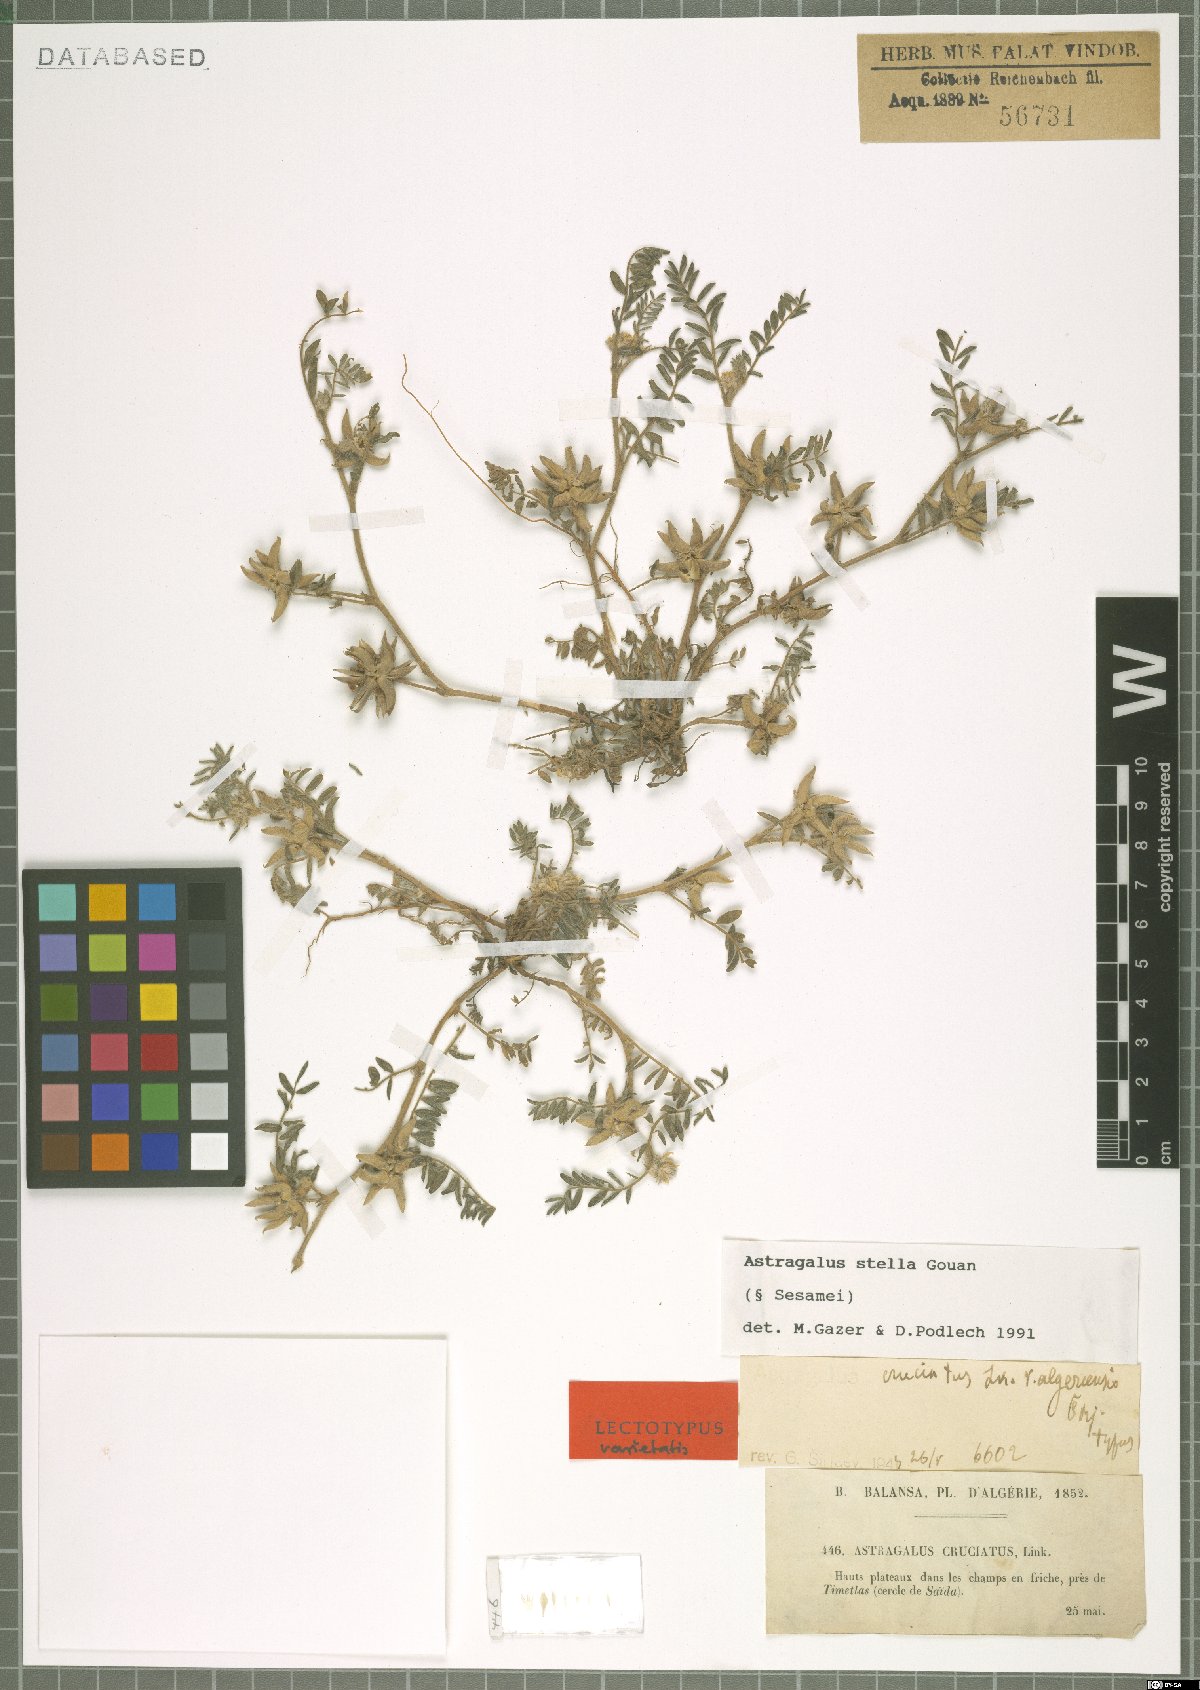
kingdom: Plantae
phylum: Tracheophyta
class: Magnoliopsida
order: Fabales
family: Fabaceae
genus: Astragalus
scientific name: Astragalus stella
